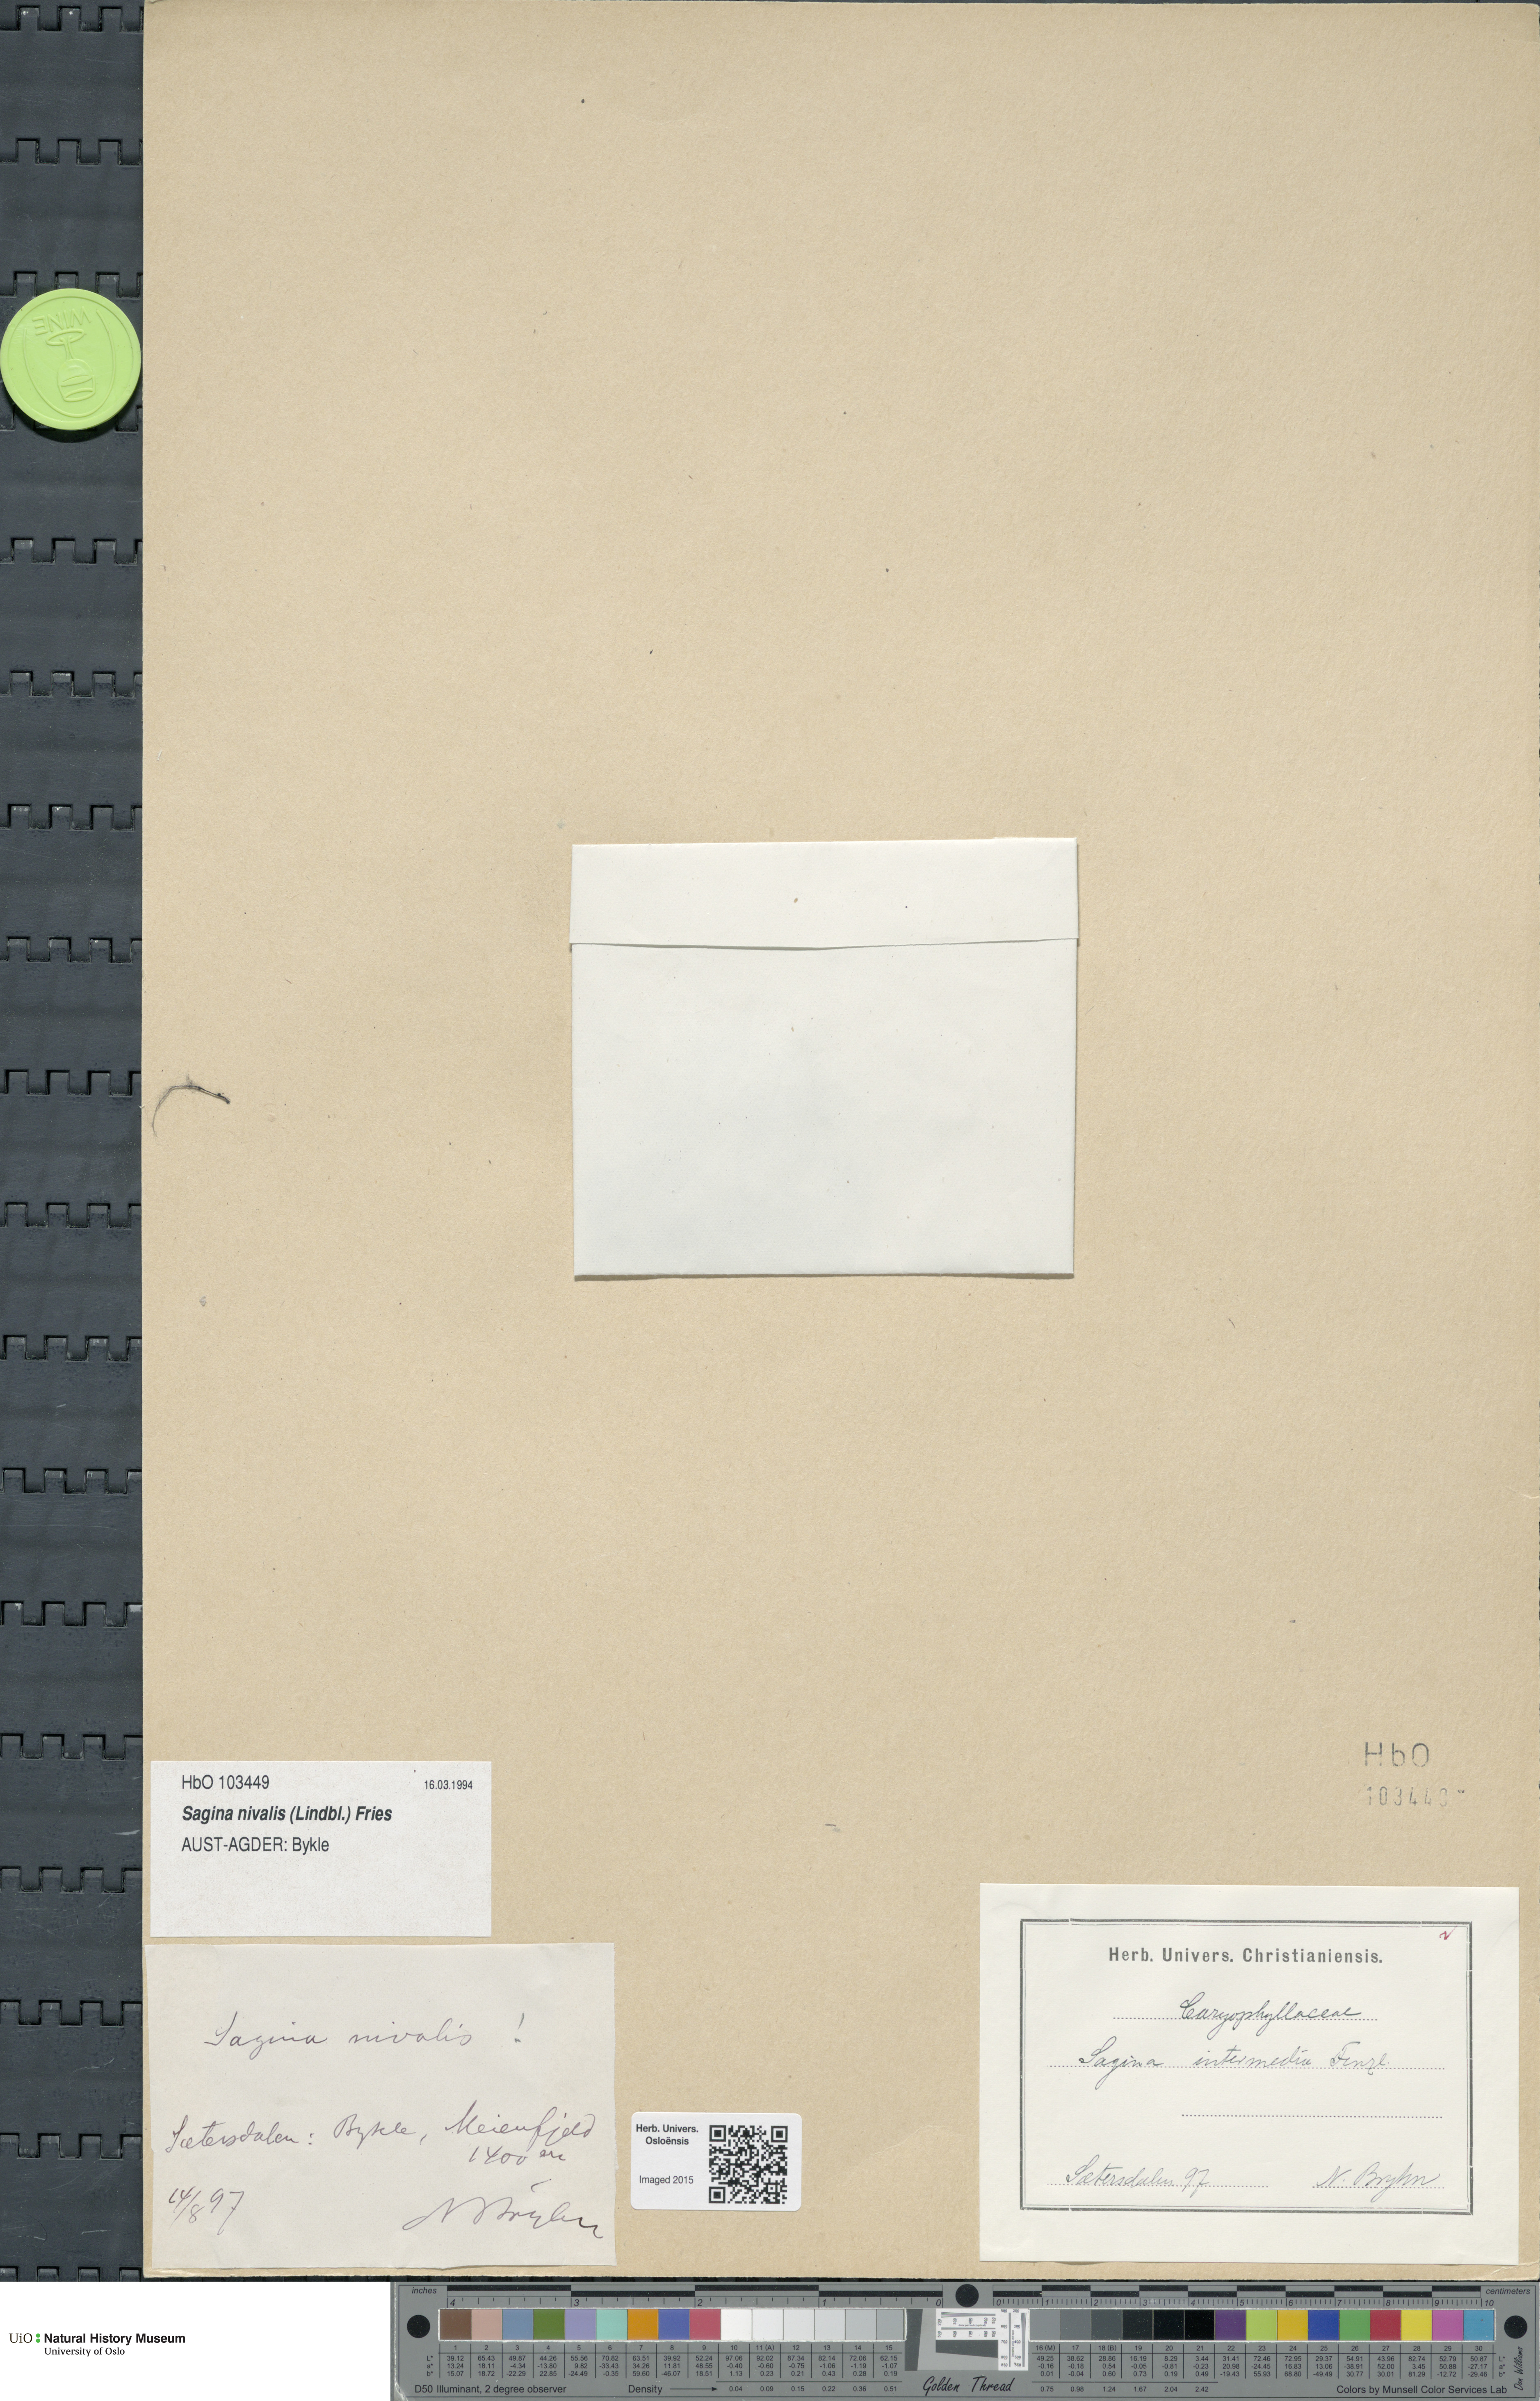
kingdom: Plantae
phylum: Tracheophyta
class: Magnoliopsida
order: Caryophyllales
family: Caryophyllaceae
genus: Sagina
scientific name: Sagina nivalis
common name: Snow pearlwort
